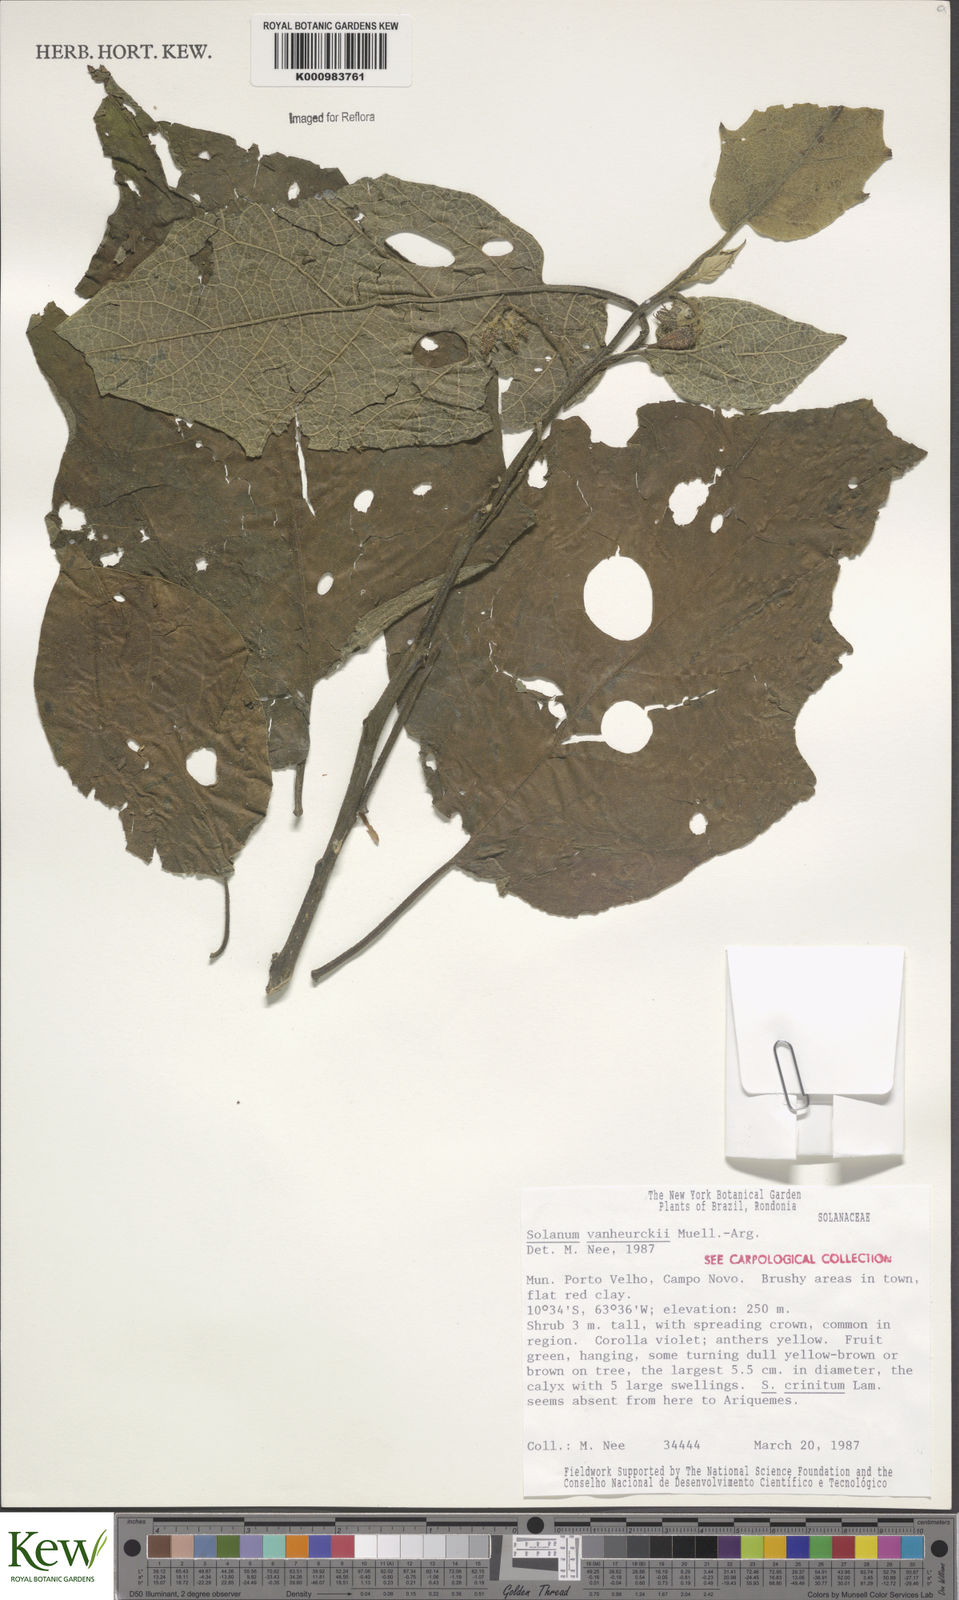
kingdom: Plantae
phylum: Tracheophyta
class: Magnoliopsida
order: Solanales
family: Solanaceae
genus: Solanum
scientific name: Solanum
